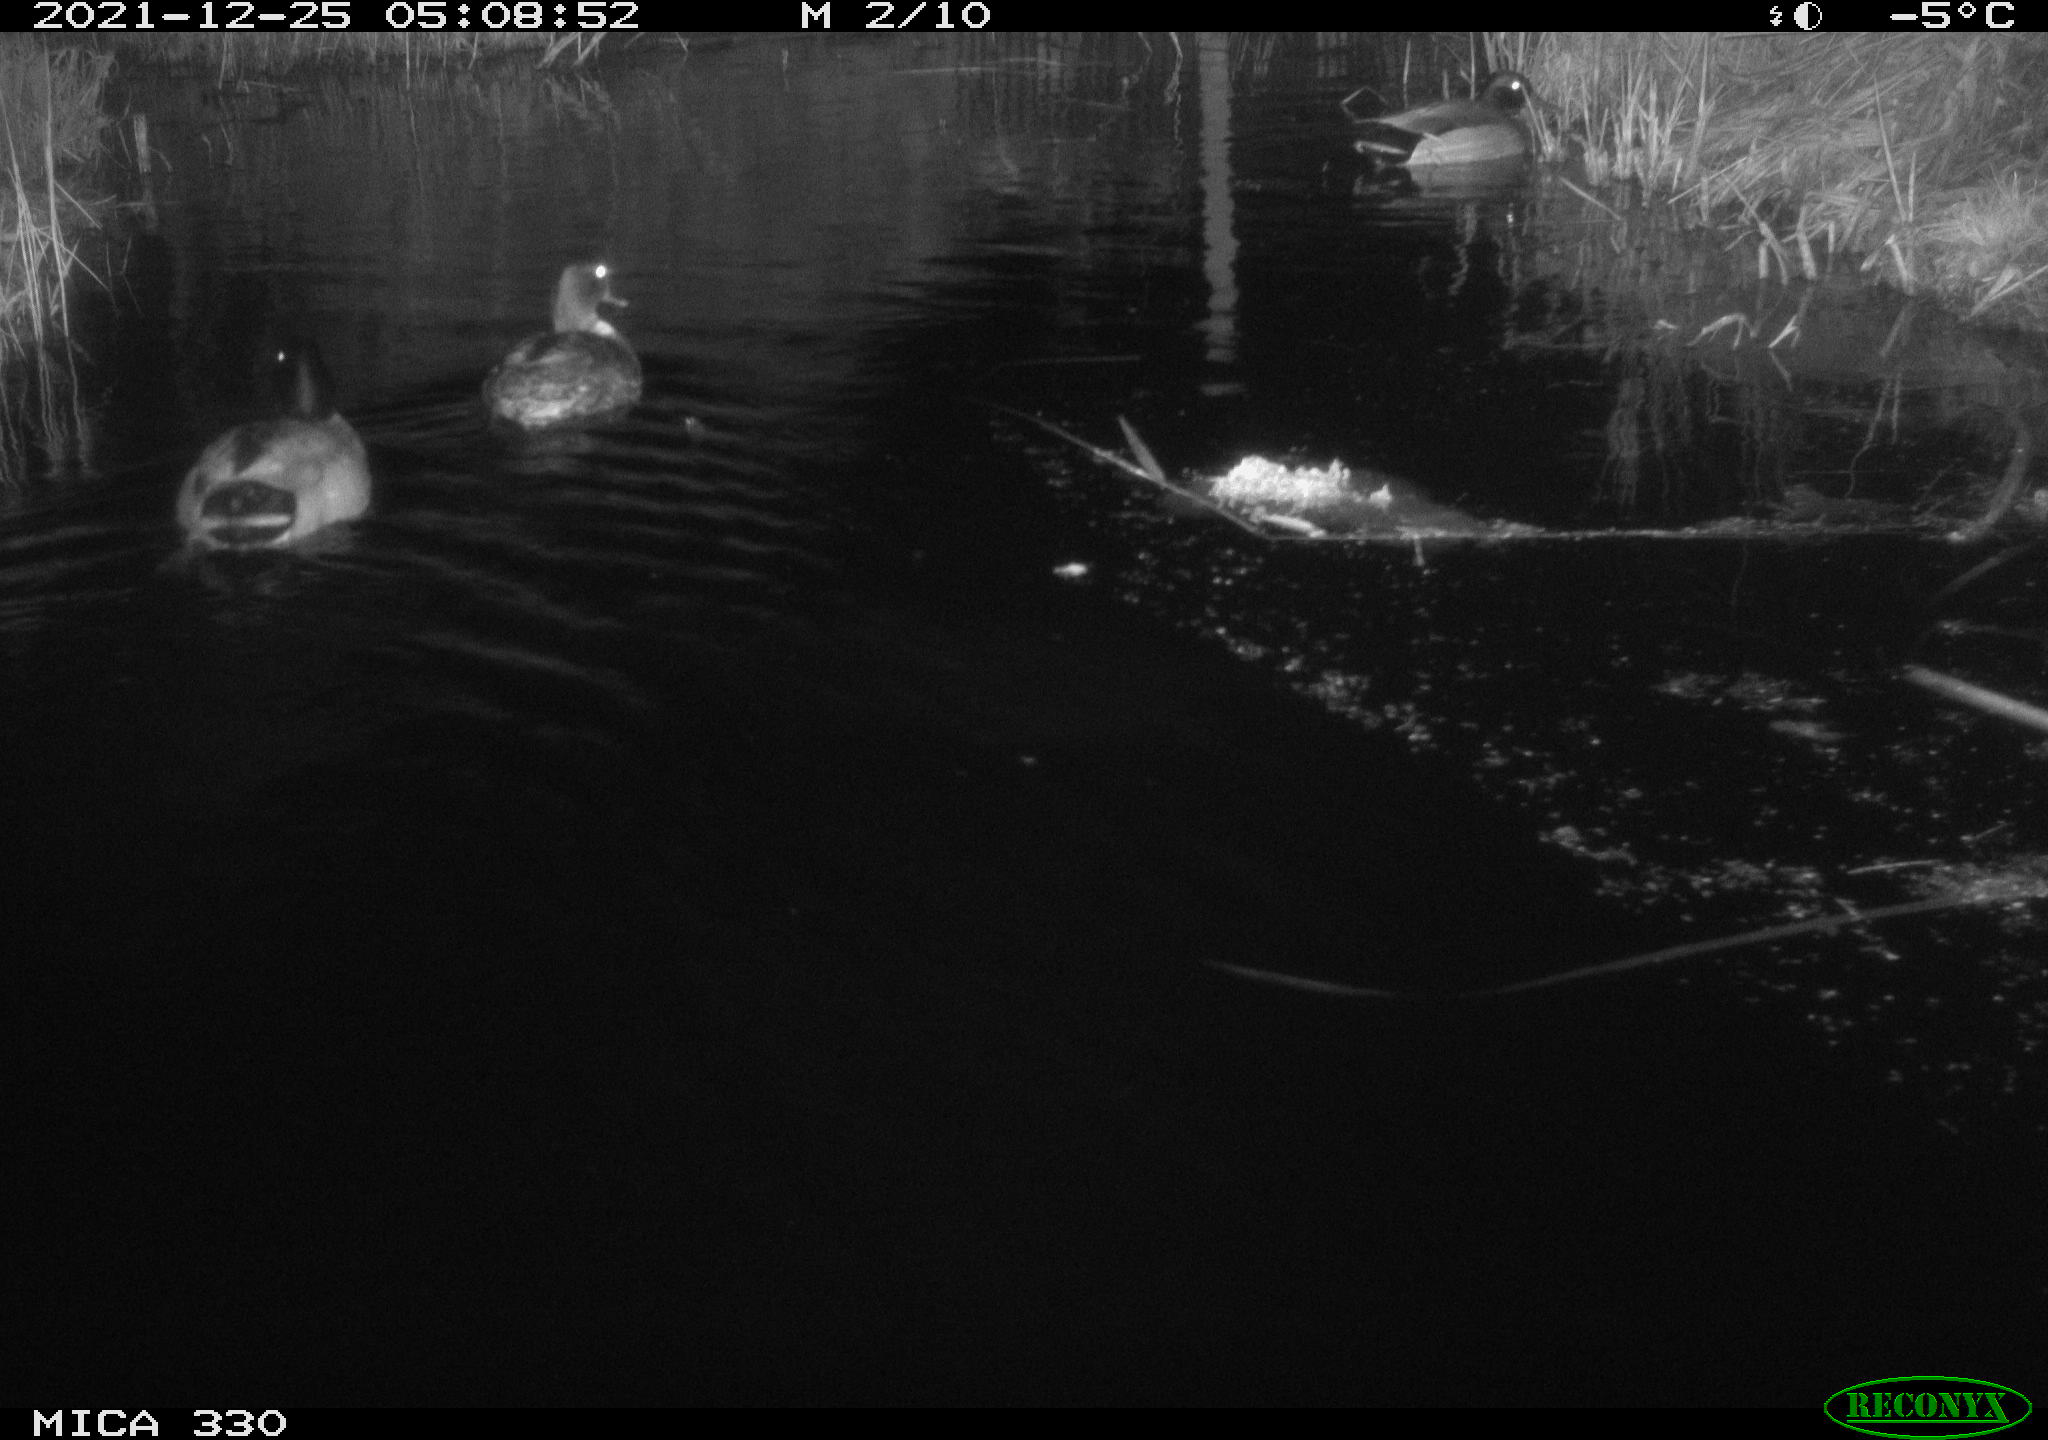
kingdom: Animalia
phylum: Chordata
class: Aves
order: Anseriformes
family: Anatidae
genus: Anas
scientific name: Anas platyrhynchos
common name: Mallard
